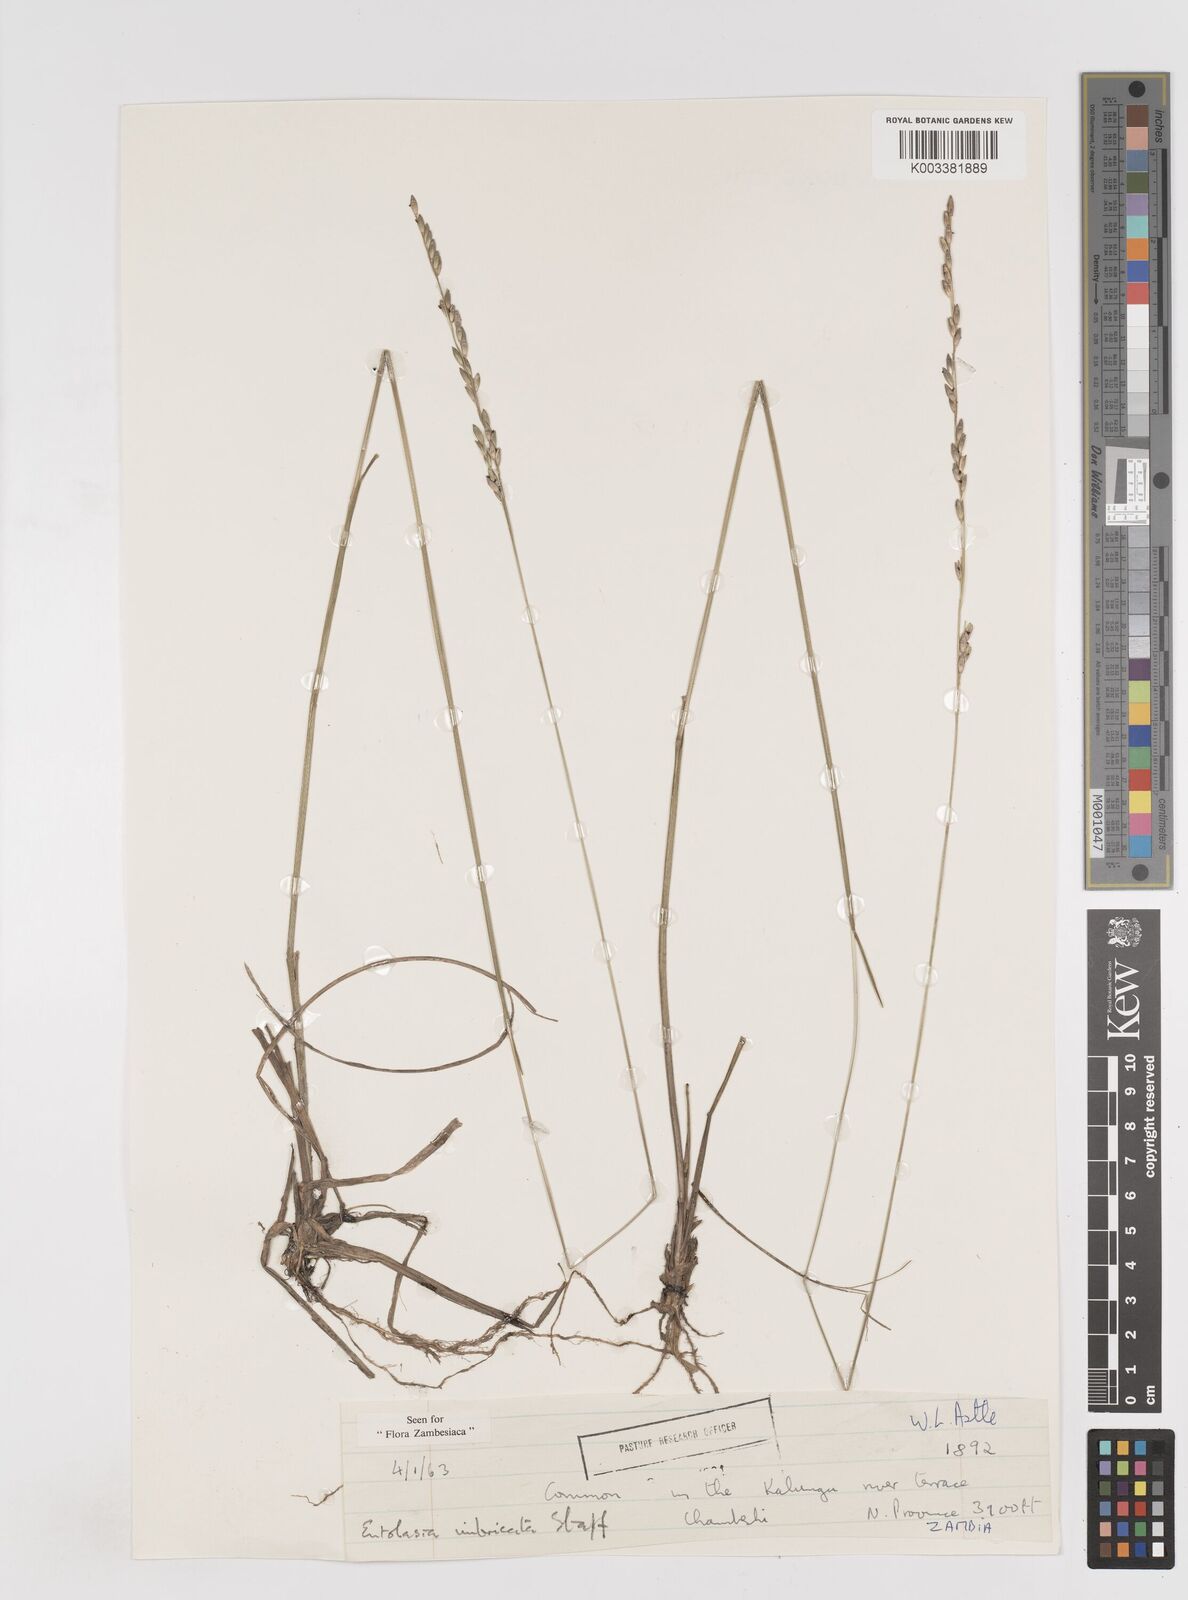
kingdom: Plantae
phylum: Tracheophyta
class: Liliopsida
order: Poales
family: Poaceae
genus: Entolasia
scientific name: Entolasia imbricata
